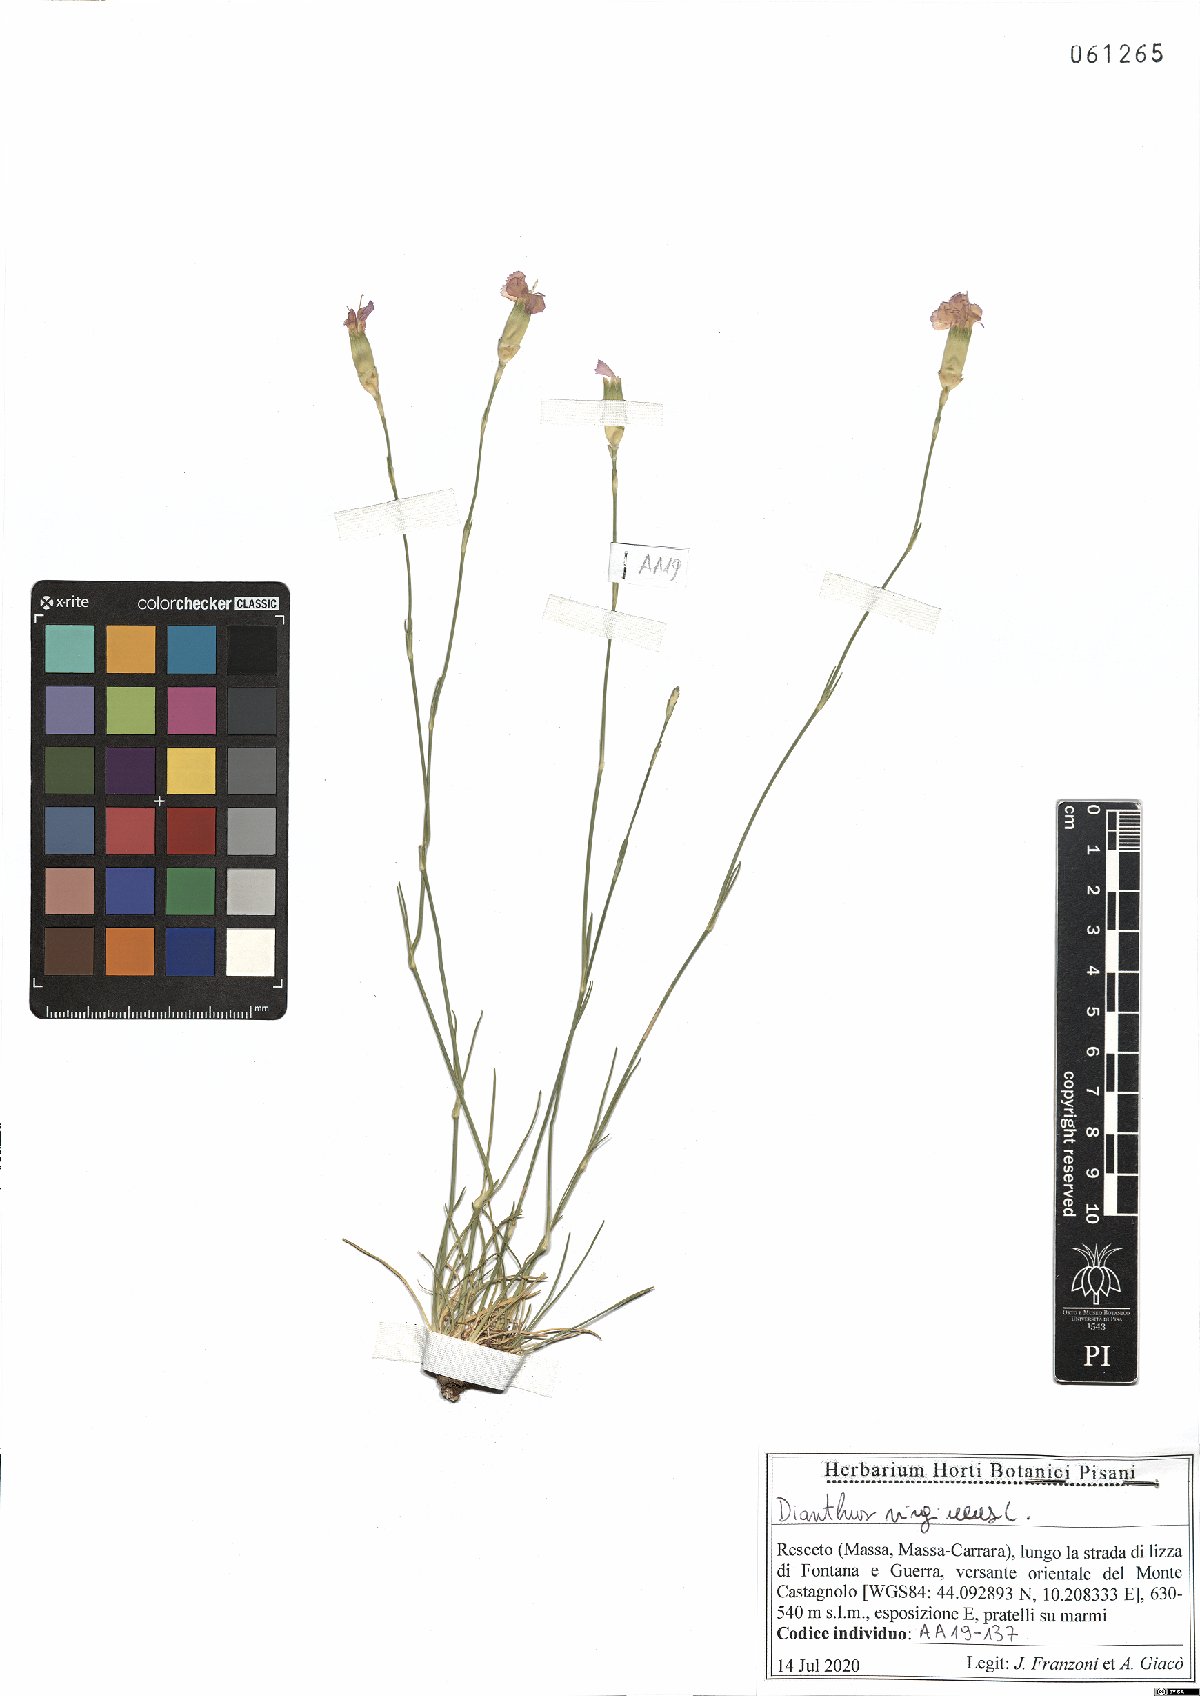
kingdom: Plantae
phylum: Tracheophyta
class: Magnoliopsida
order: Caryophyllales
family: Caryophyllaceae
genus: Dianthus
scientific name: Dianthus virgineus
